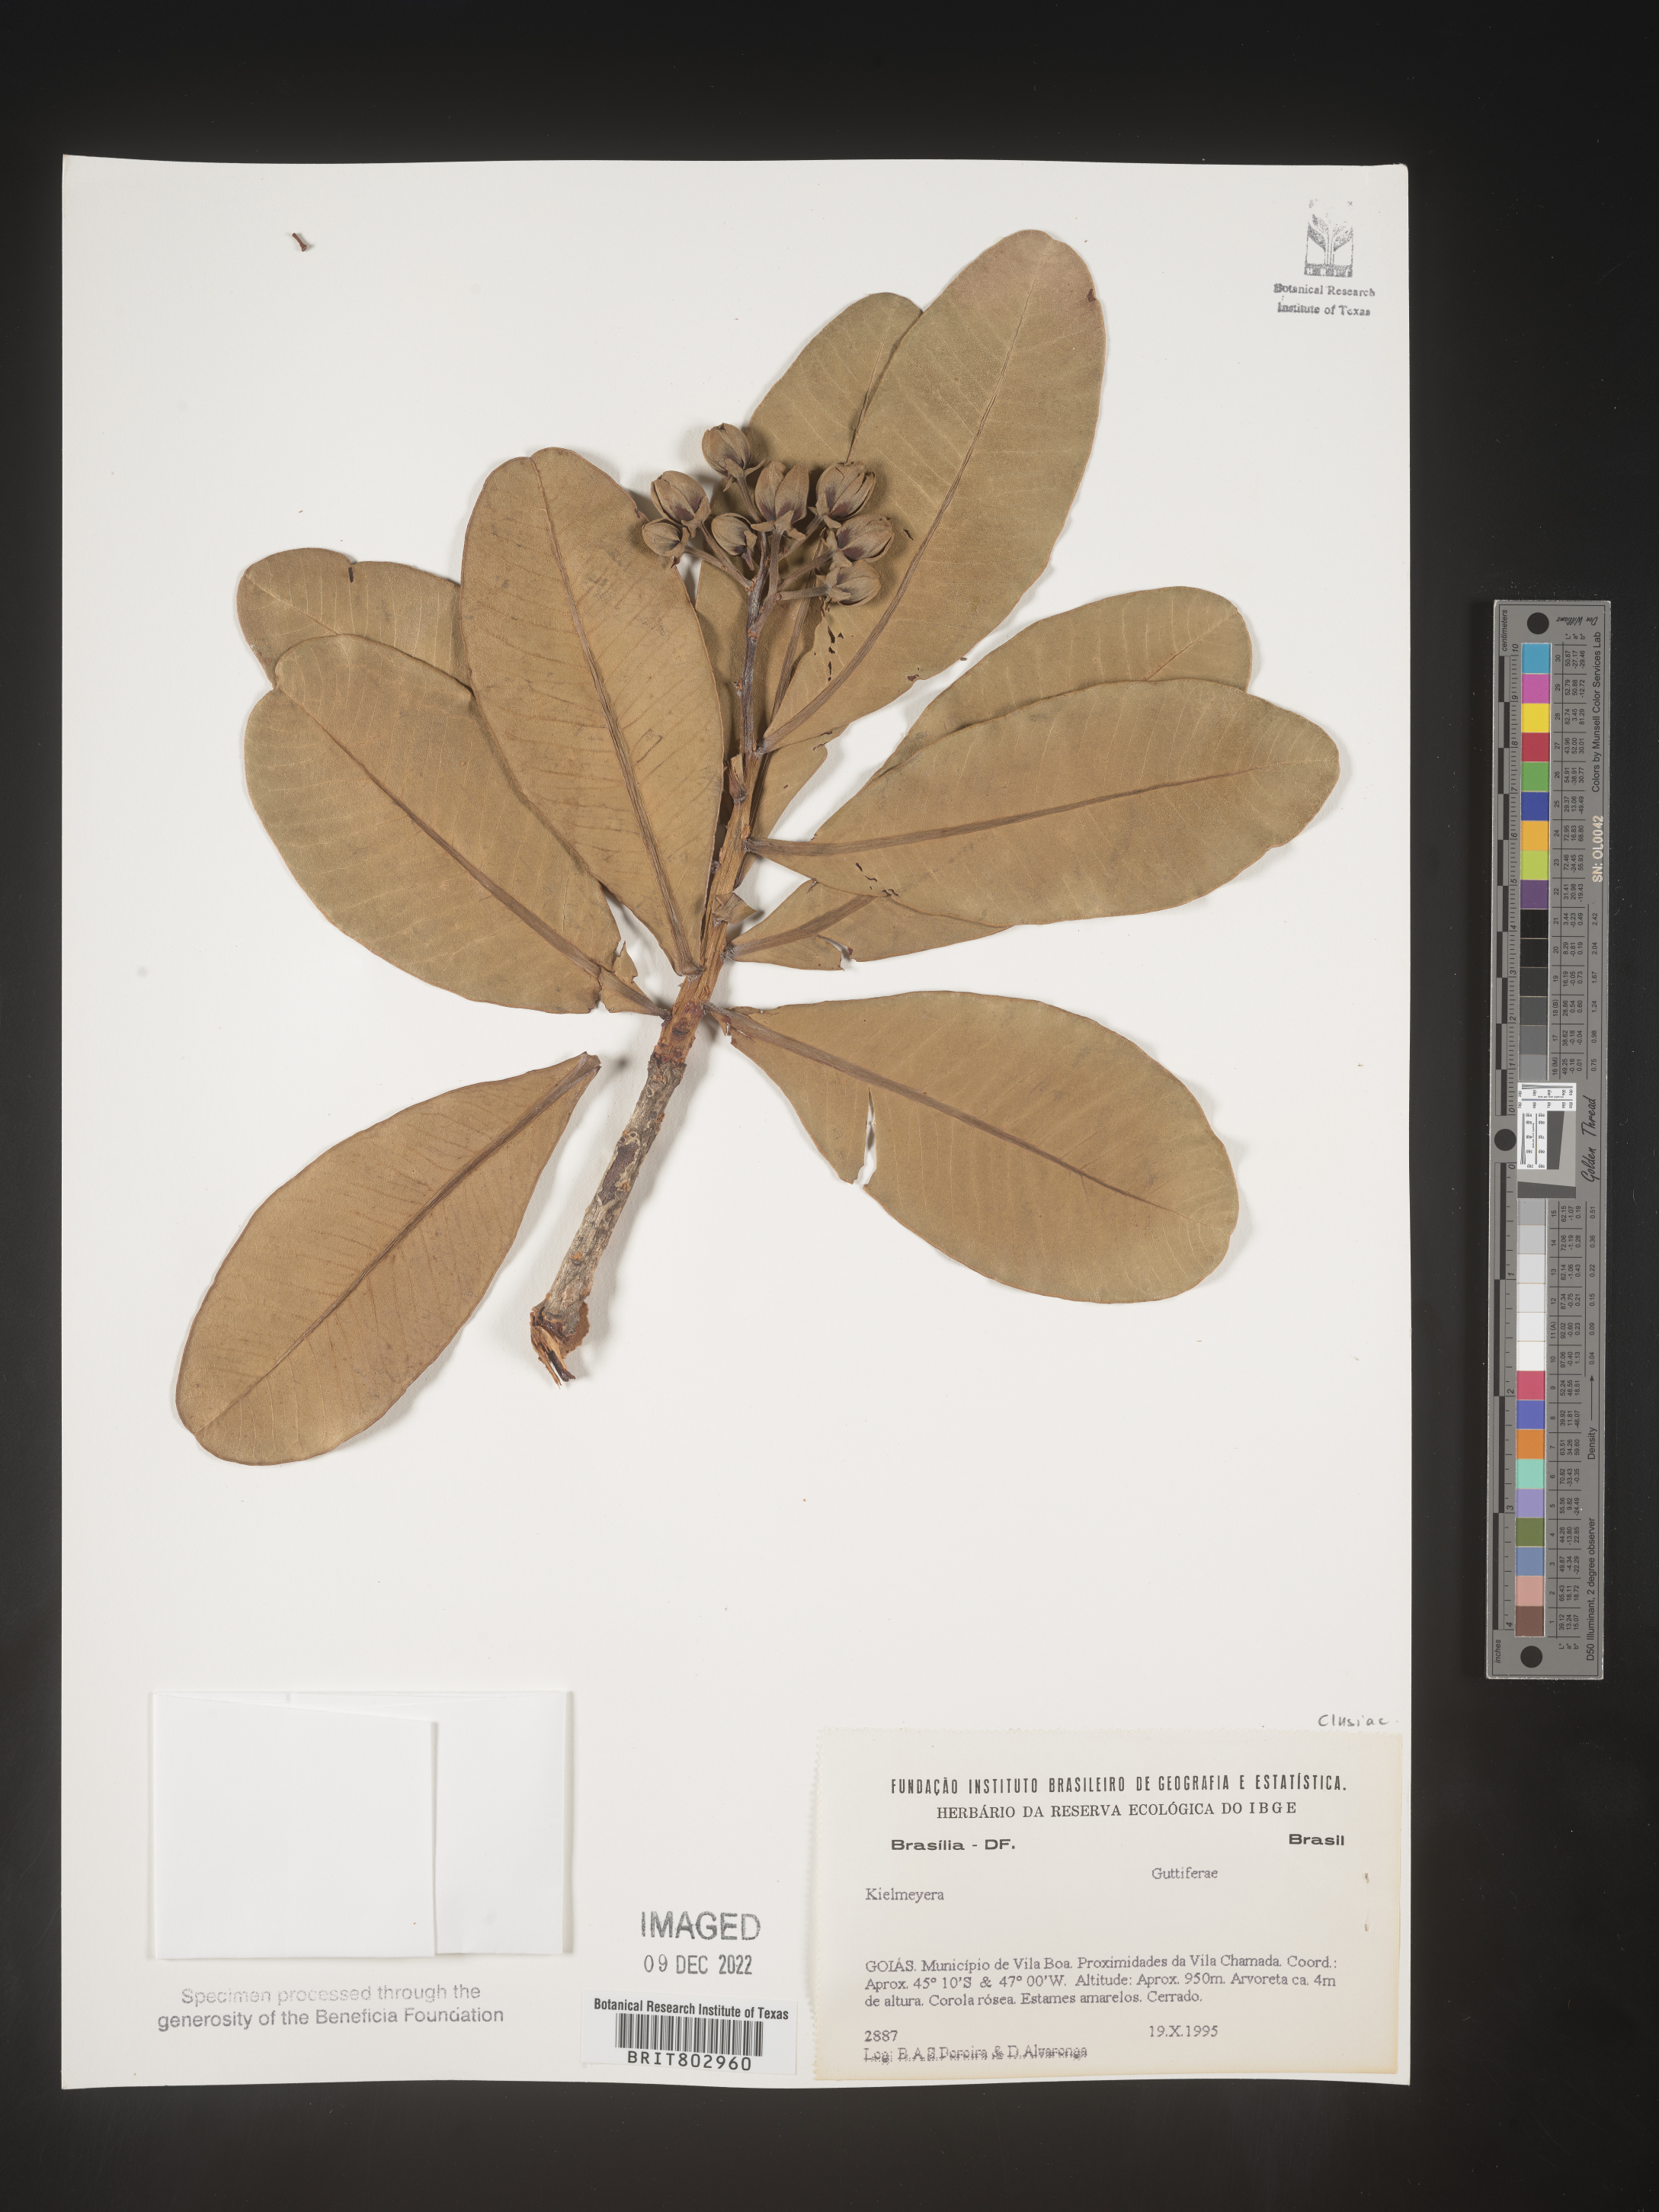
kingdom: Plantae
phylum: Tracheophyta
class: Magnoliopsida
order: Malpighiales
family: Calophyllaceae
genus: Kielmeyera
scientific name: Kielmeyera
